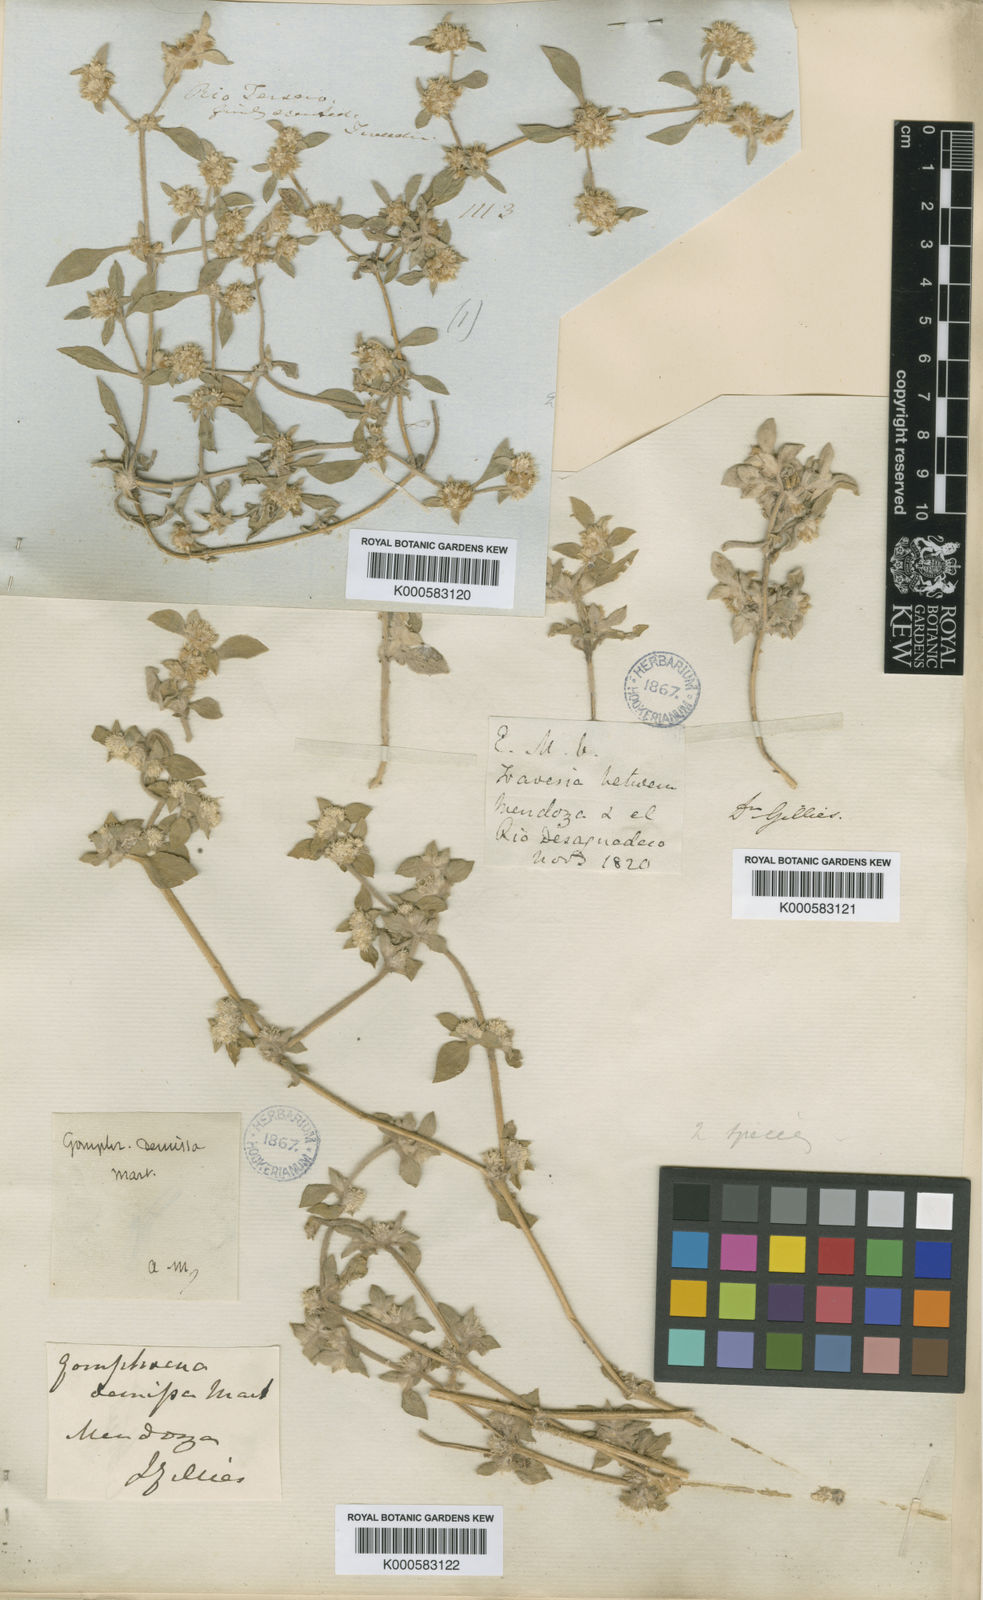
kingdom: Plantae
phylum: Tracheophyta
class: Magnoliopsida
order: Caryophyllales
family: Amaranthaceae
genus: Gomphrena
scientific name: Gomphrena tomentosa
